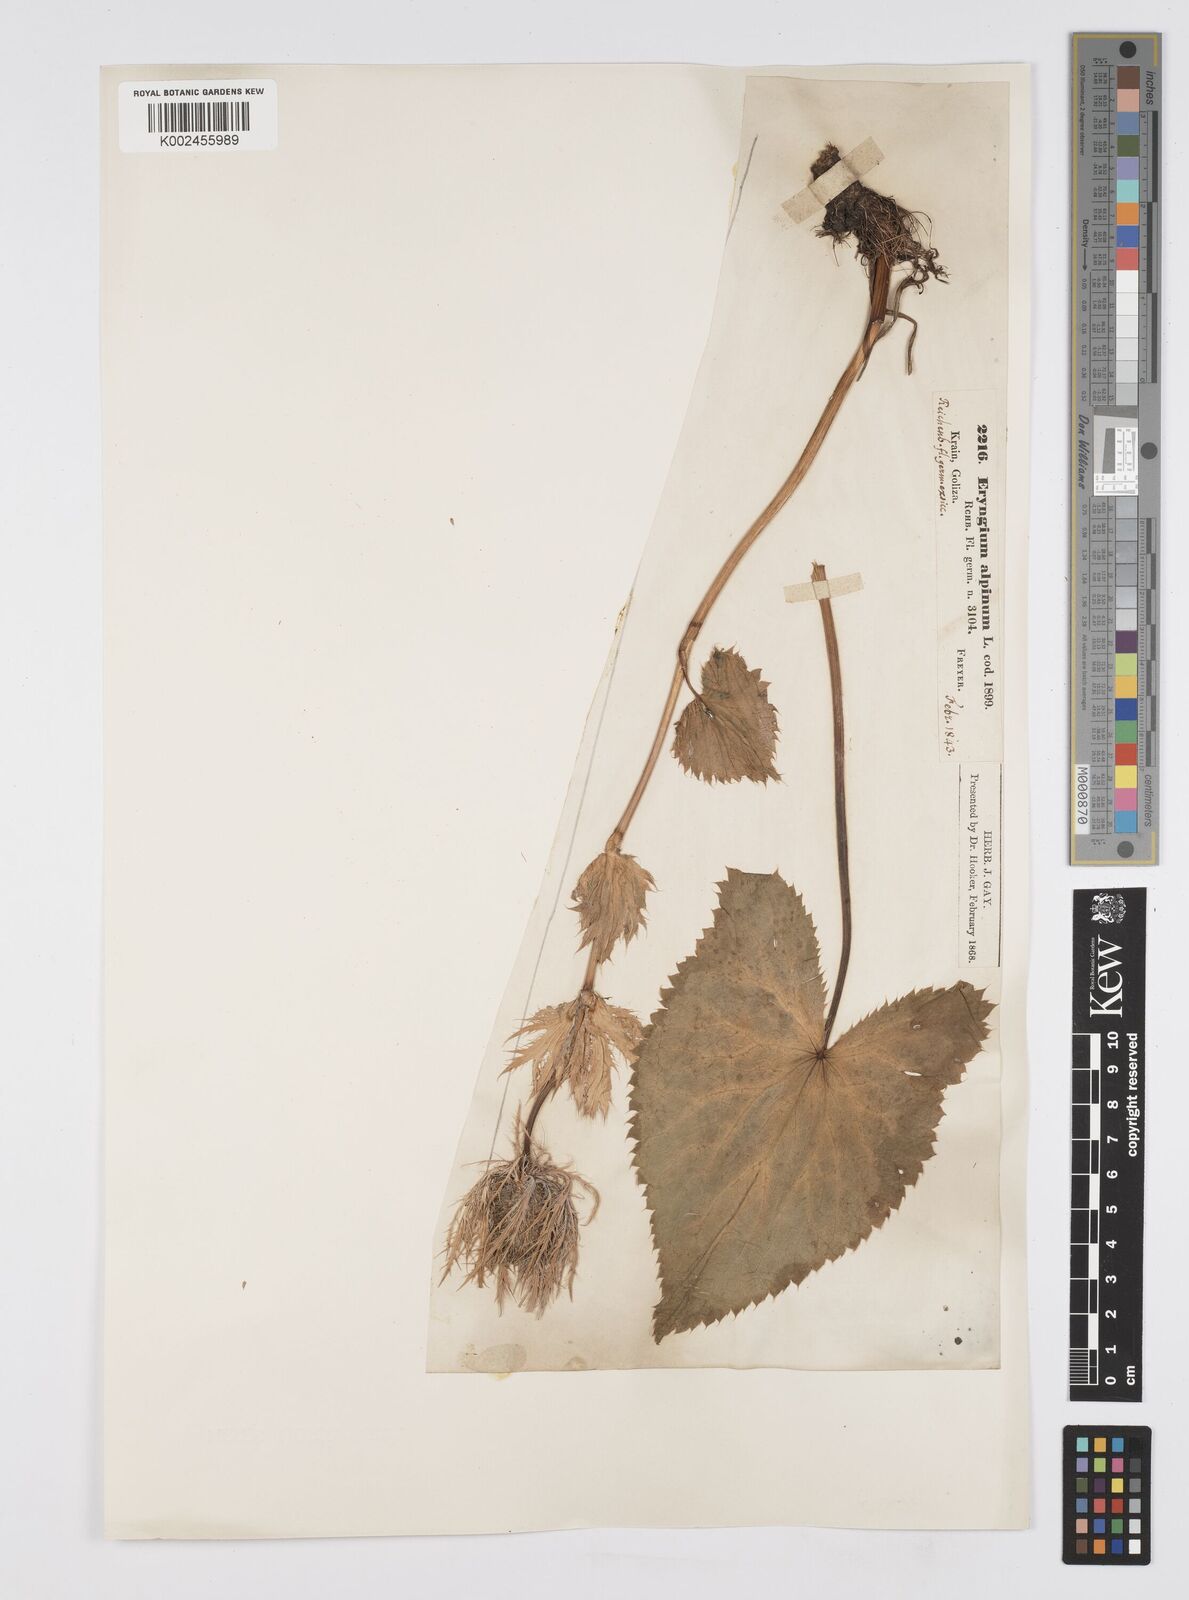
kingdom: Plantae
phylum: Tracheophyta
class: Magnoliopsida
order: Apiales
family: Apiaceae
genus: Eryngium
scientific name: Eryngium alpinum
